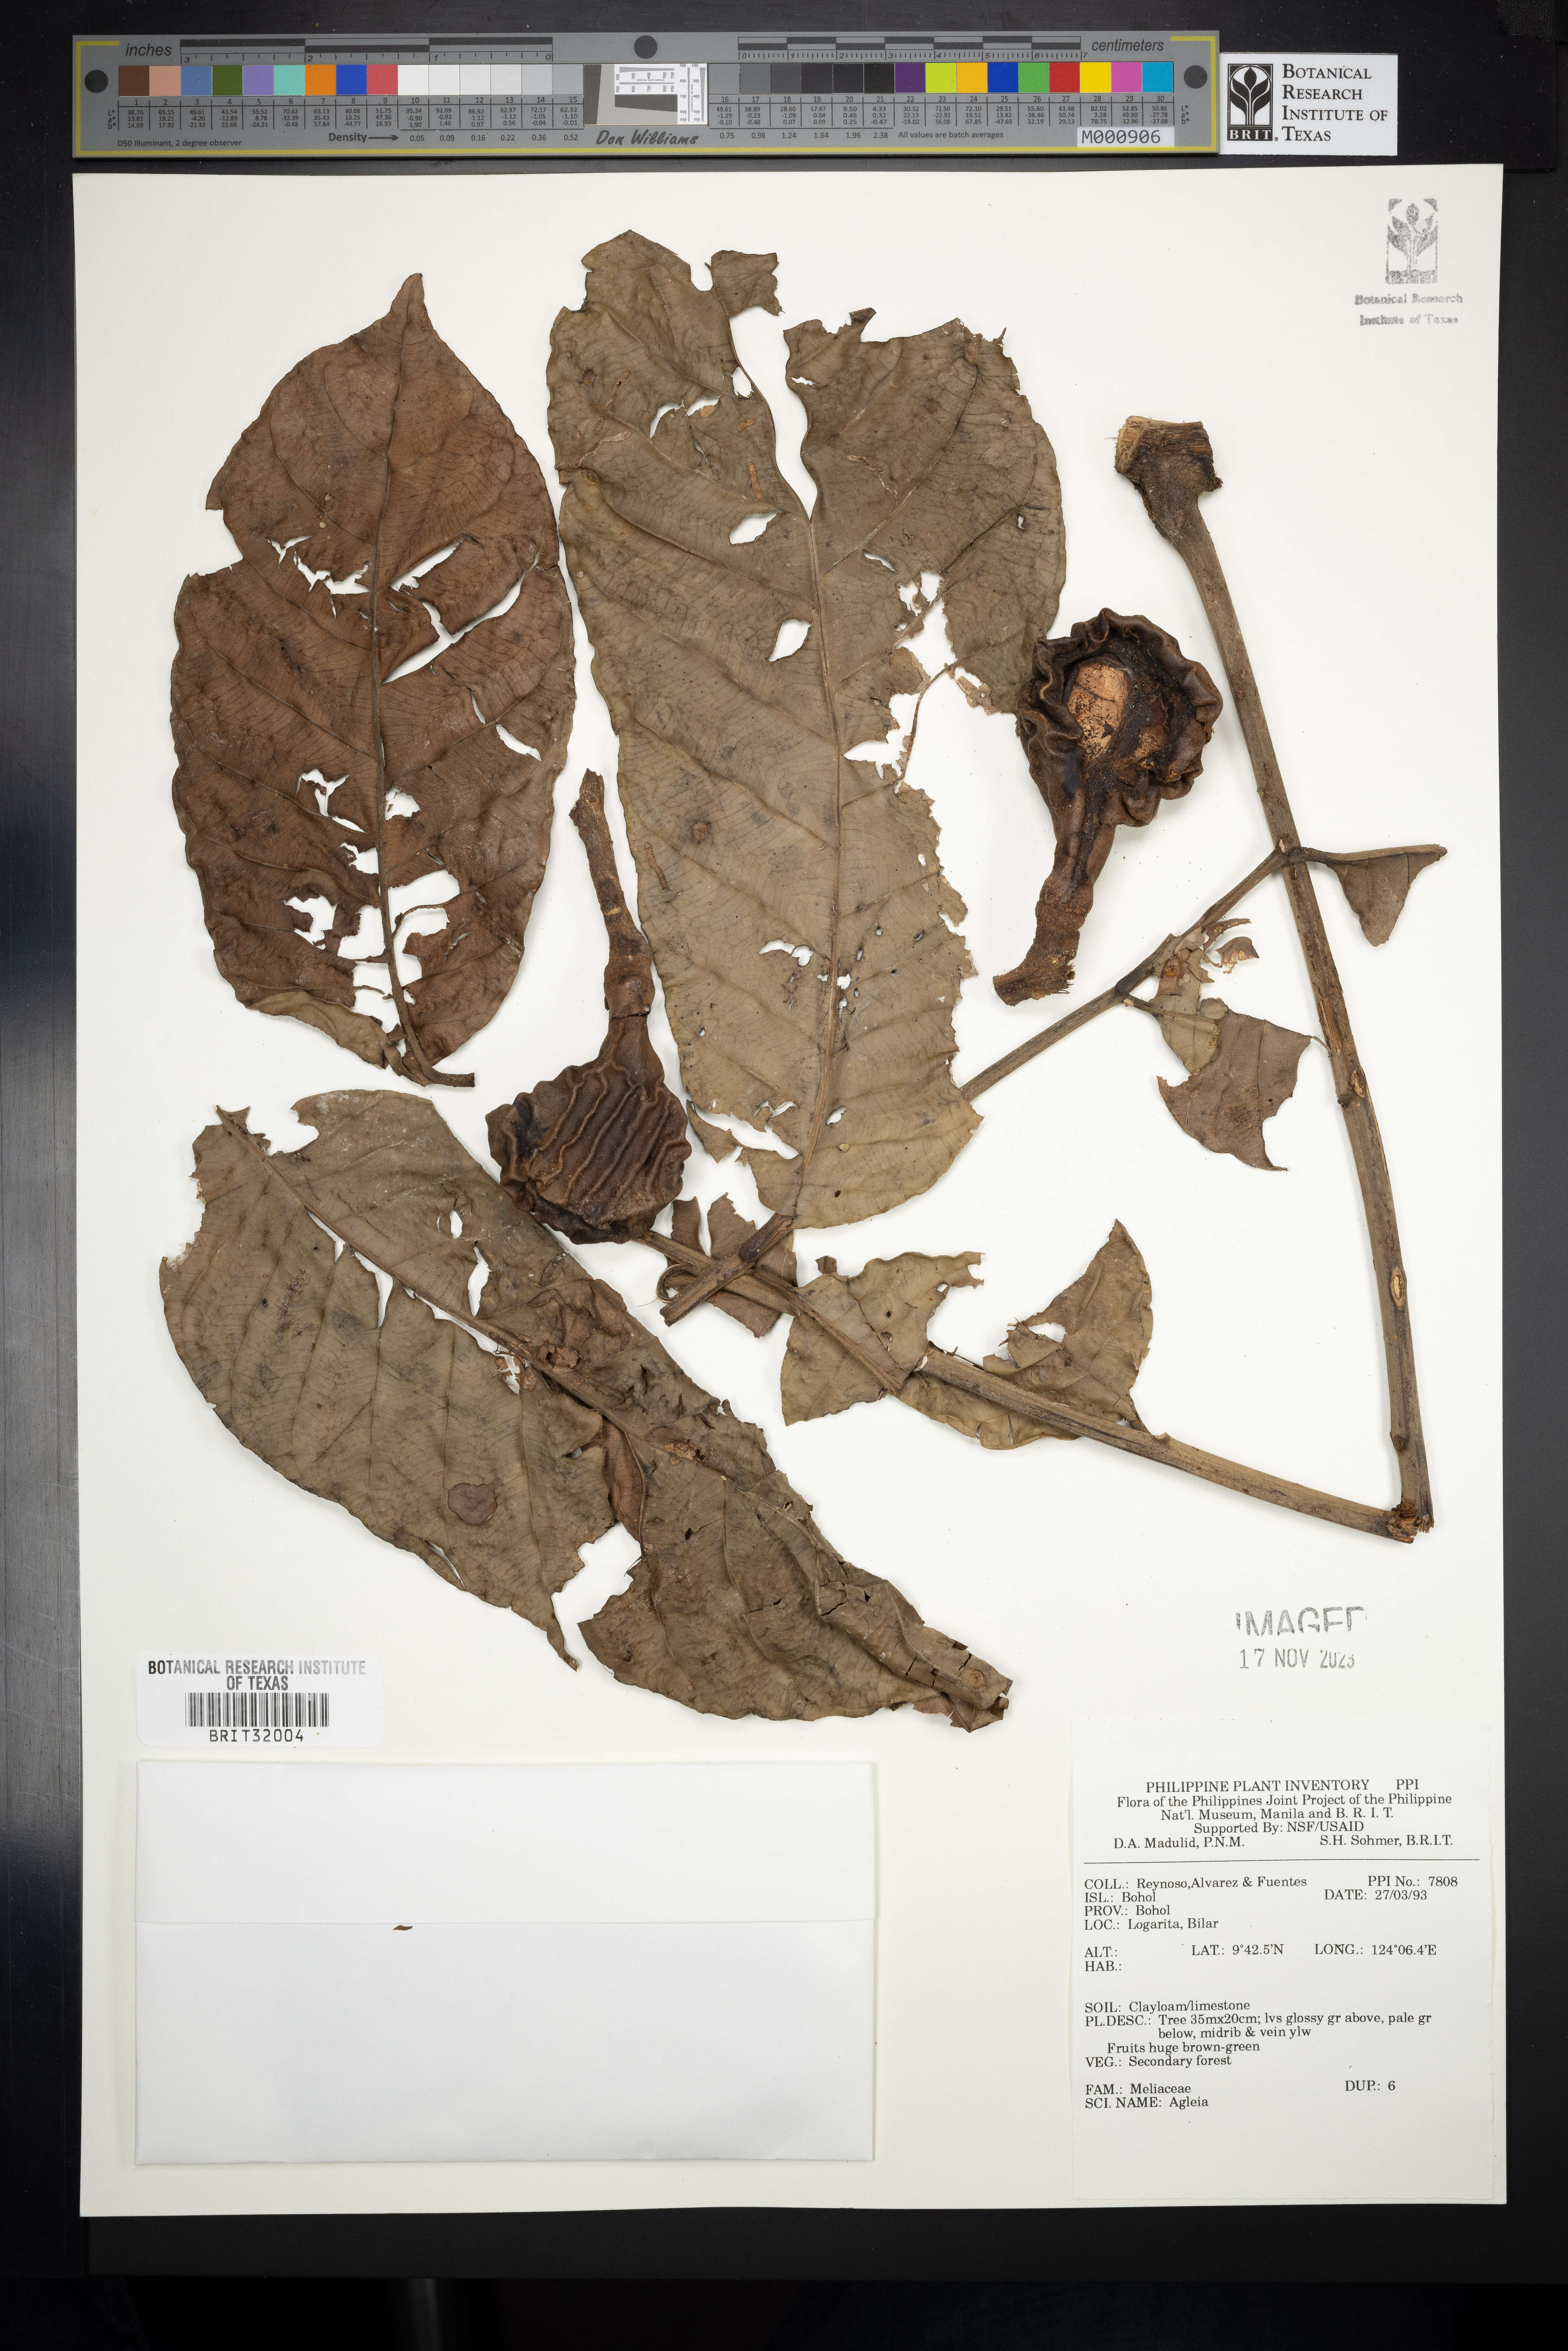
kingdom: Plantae
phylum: Tracheophyta
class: Magnoliopsida
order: Sapindales
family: Meliaceae
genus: Aglaia
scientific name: Aglaia
